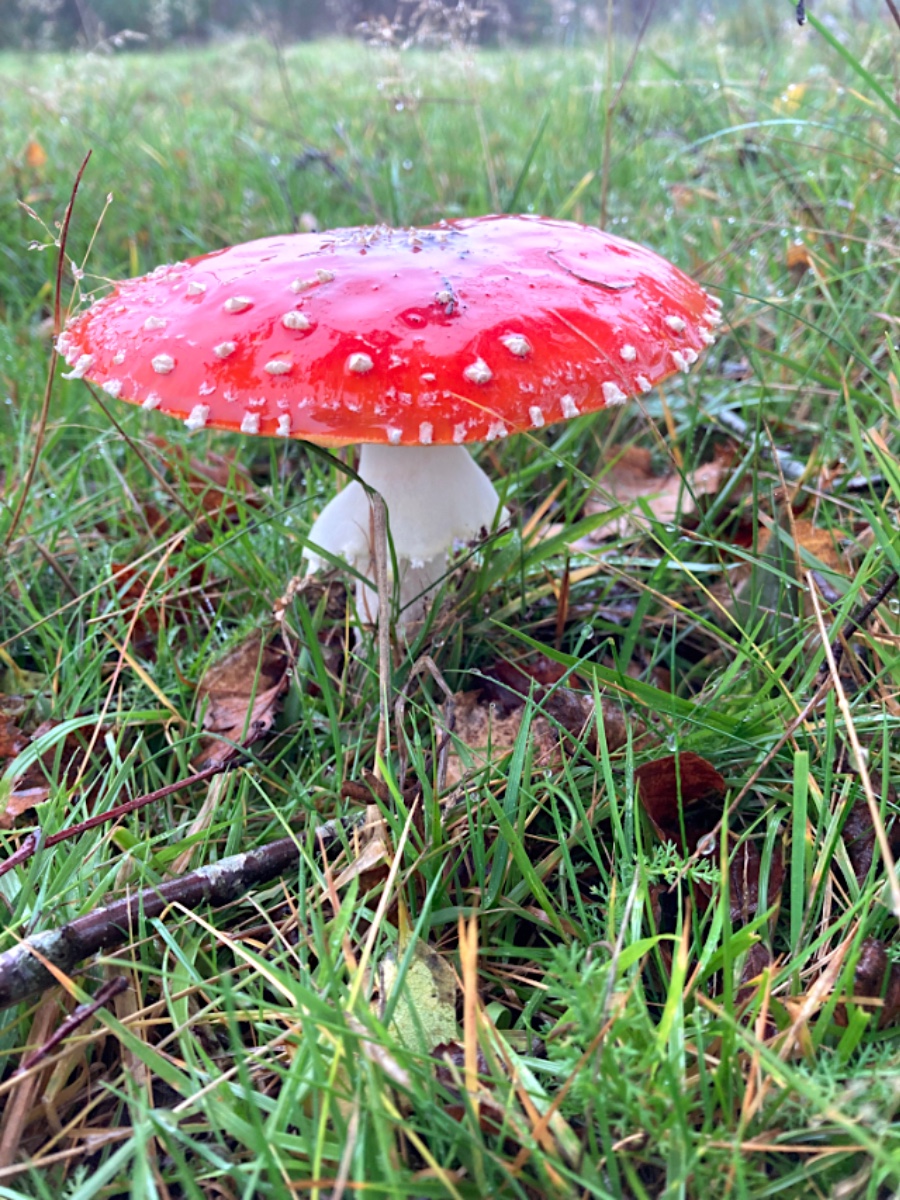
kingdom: Fungi
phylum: Basidiomycota
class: Agaricomycetes
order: Agaricales
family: Amanitaceae
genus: Amanita
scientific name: Amanita muscaria
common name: rød fluesvamp
